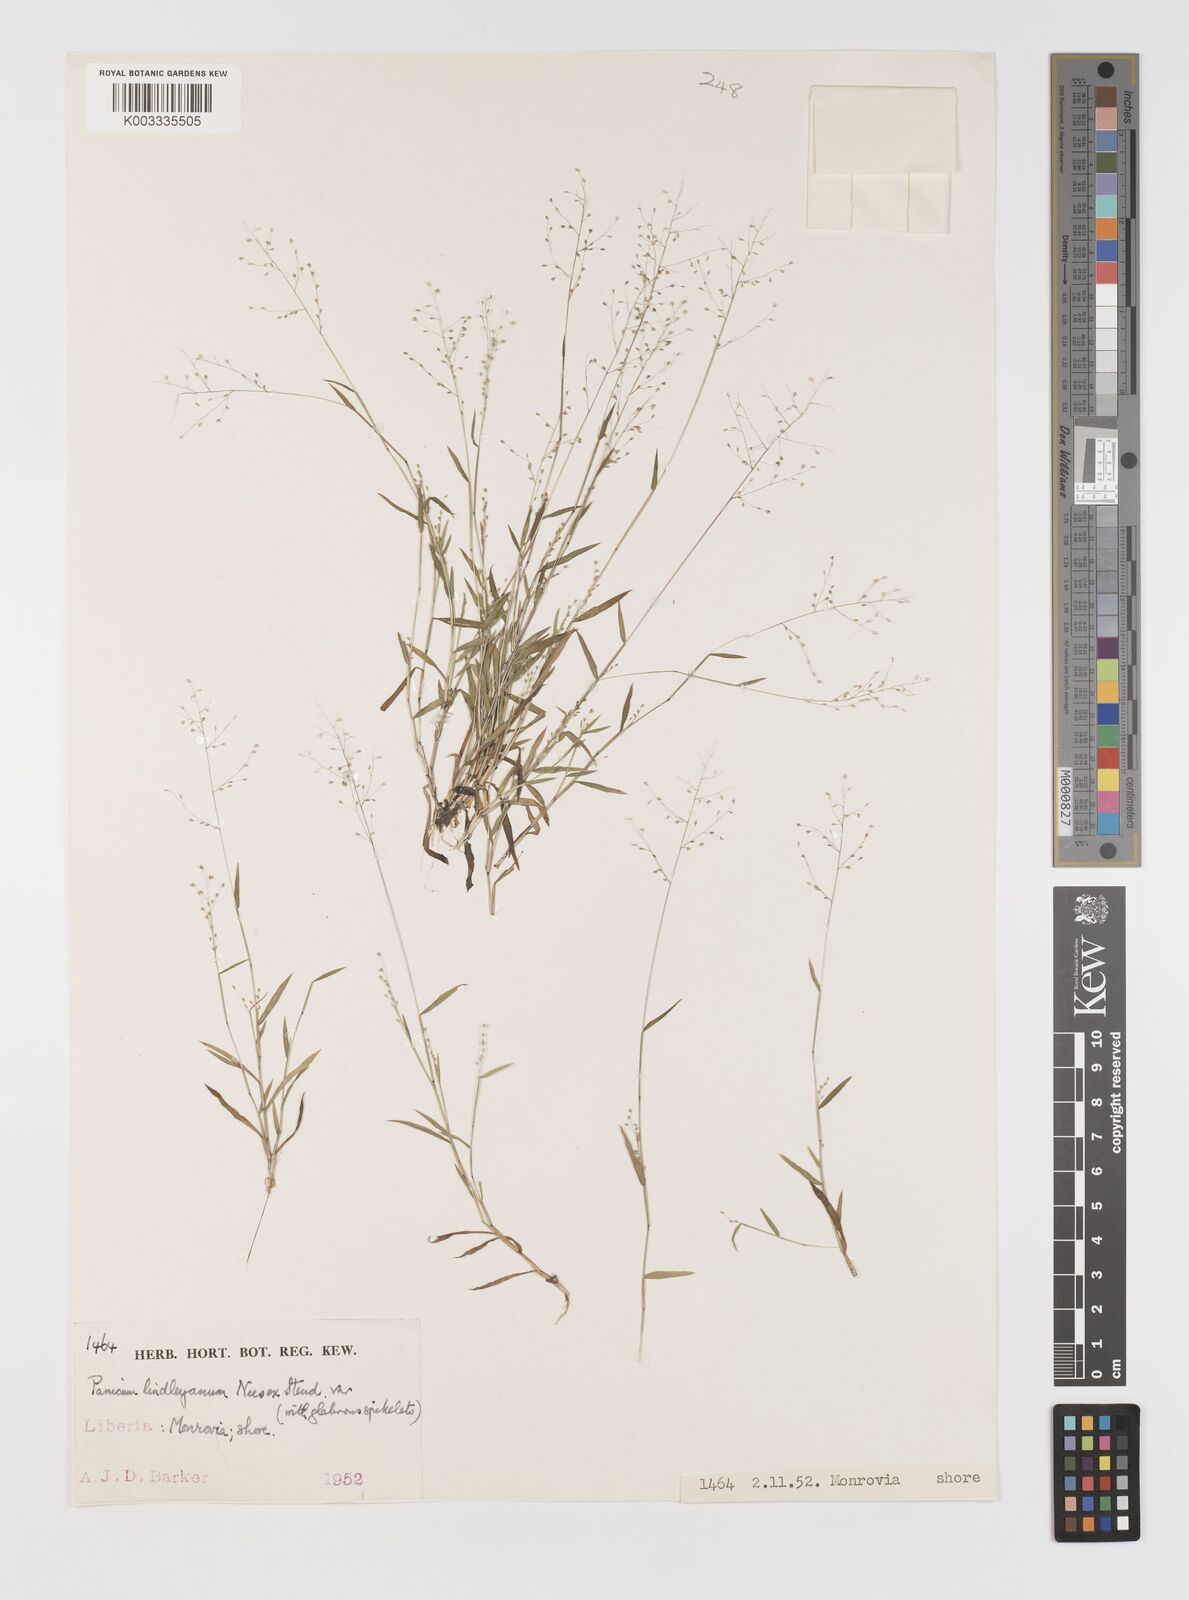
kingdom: Plantae
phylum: Tracheophyta
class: Liliopsida
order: Poales
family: Poaceae
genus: Trichanthecium
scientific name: Trichanthecium tenellum
